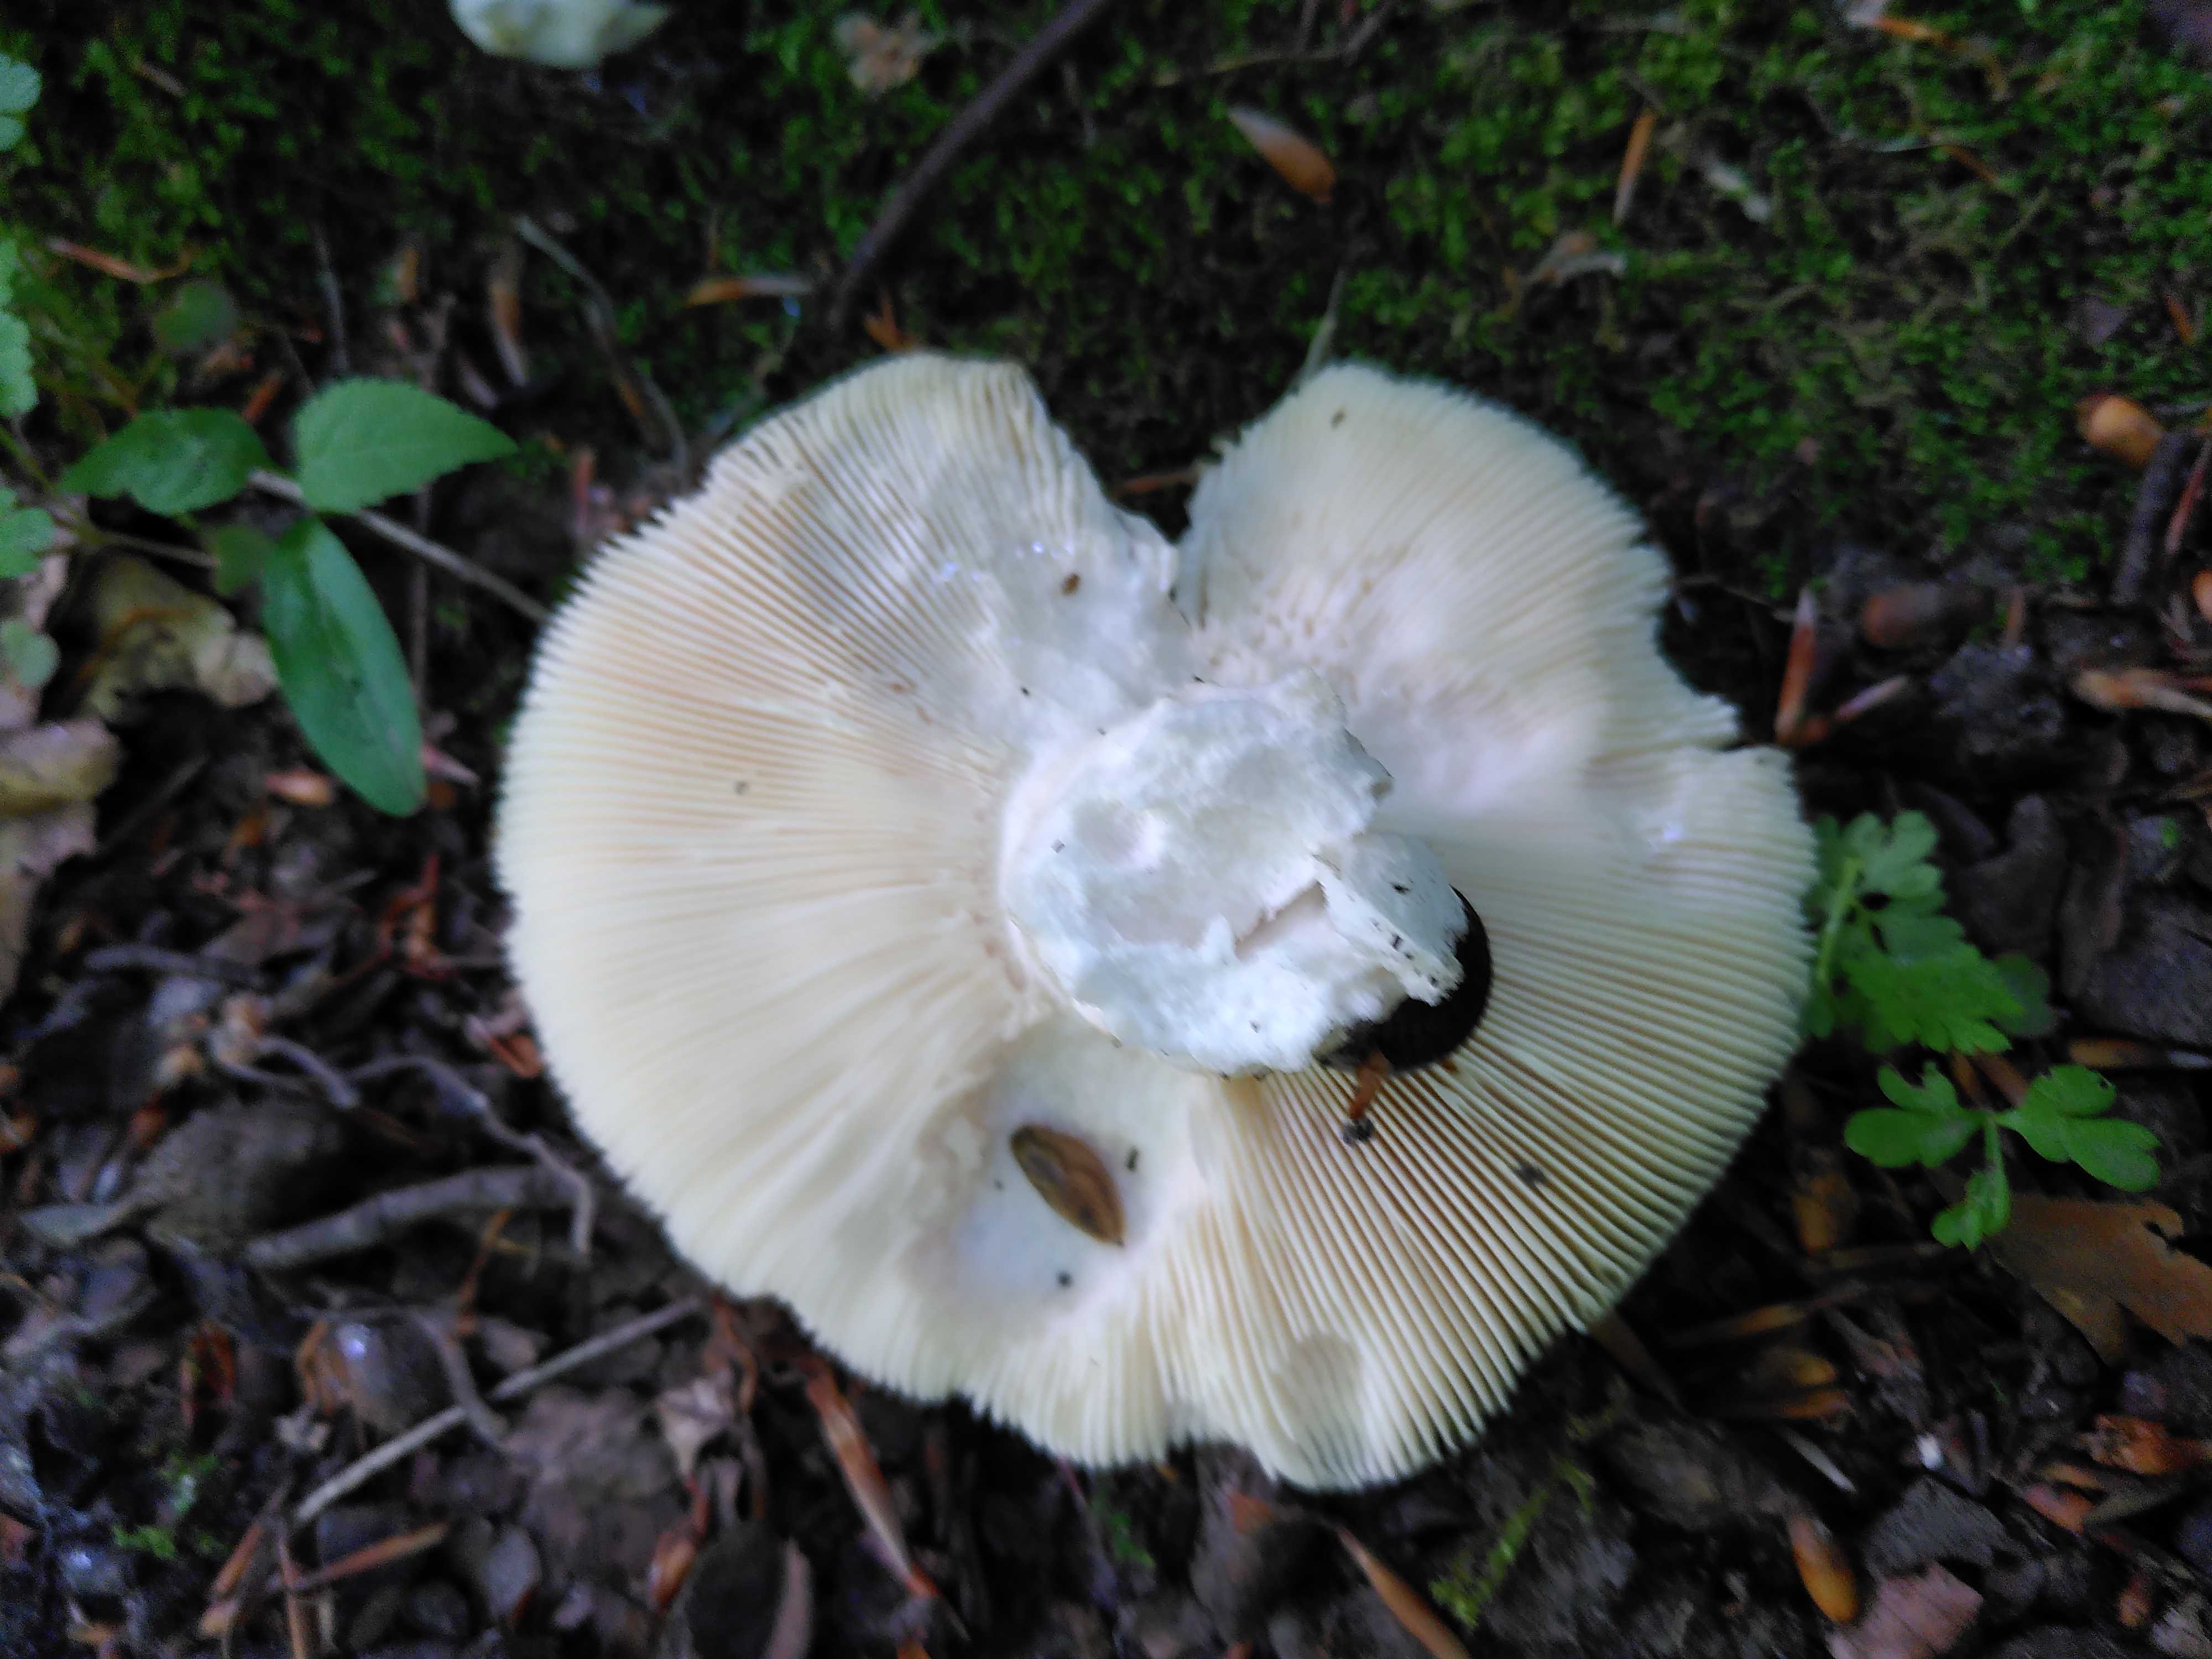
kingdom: Fungi
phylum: Basidiomycota
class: Agaricomycetes
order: Russulales
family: Russulaceae
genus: Russula
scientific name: Russula
